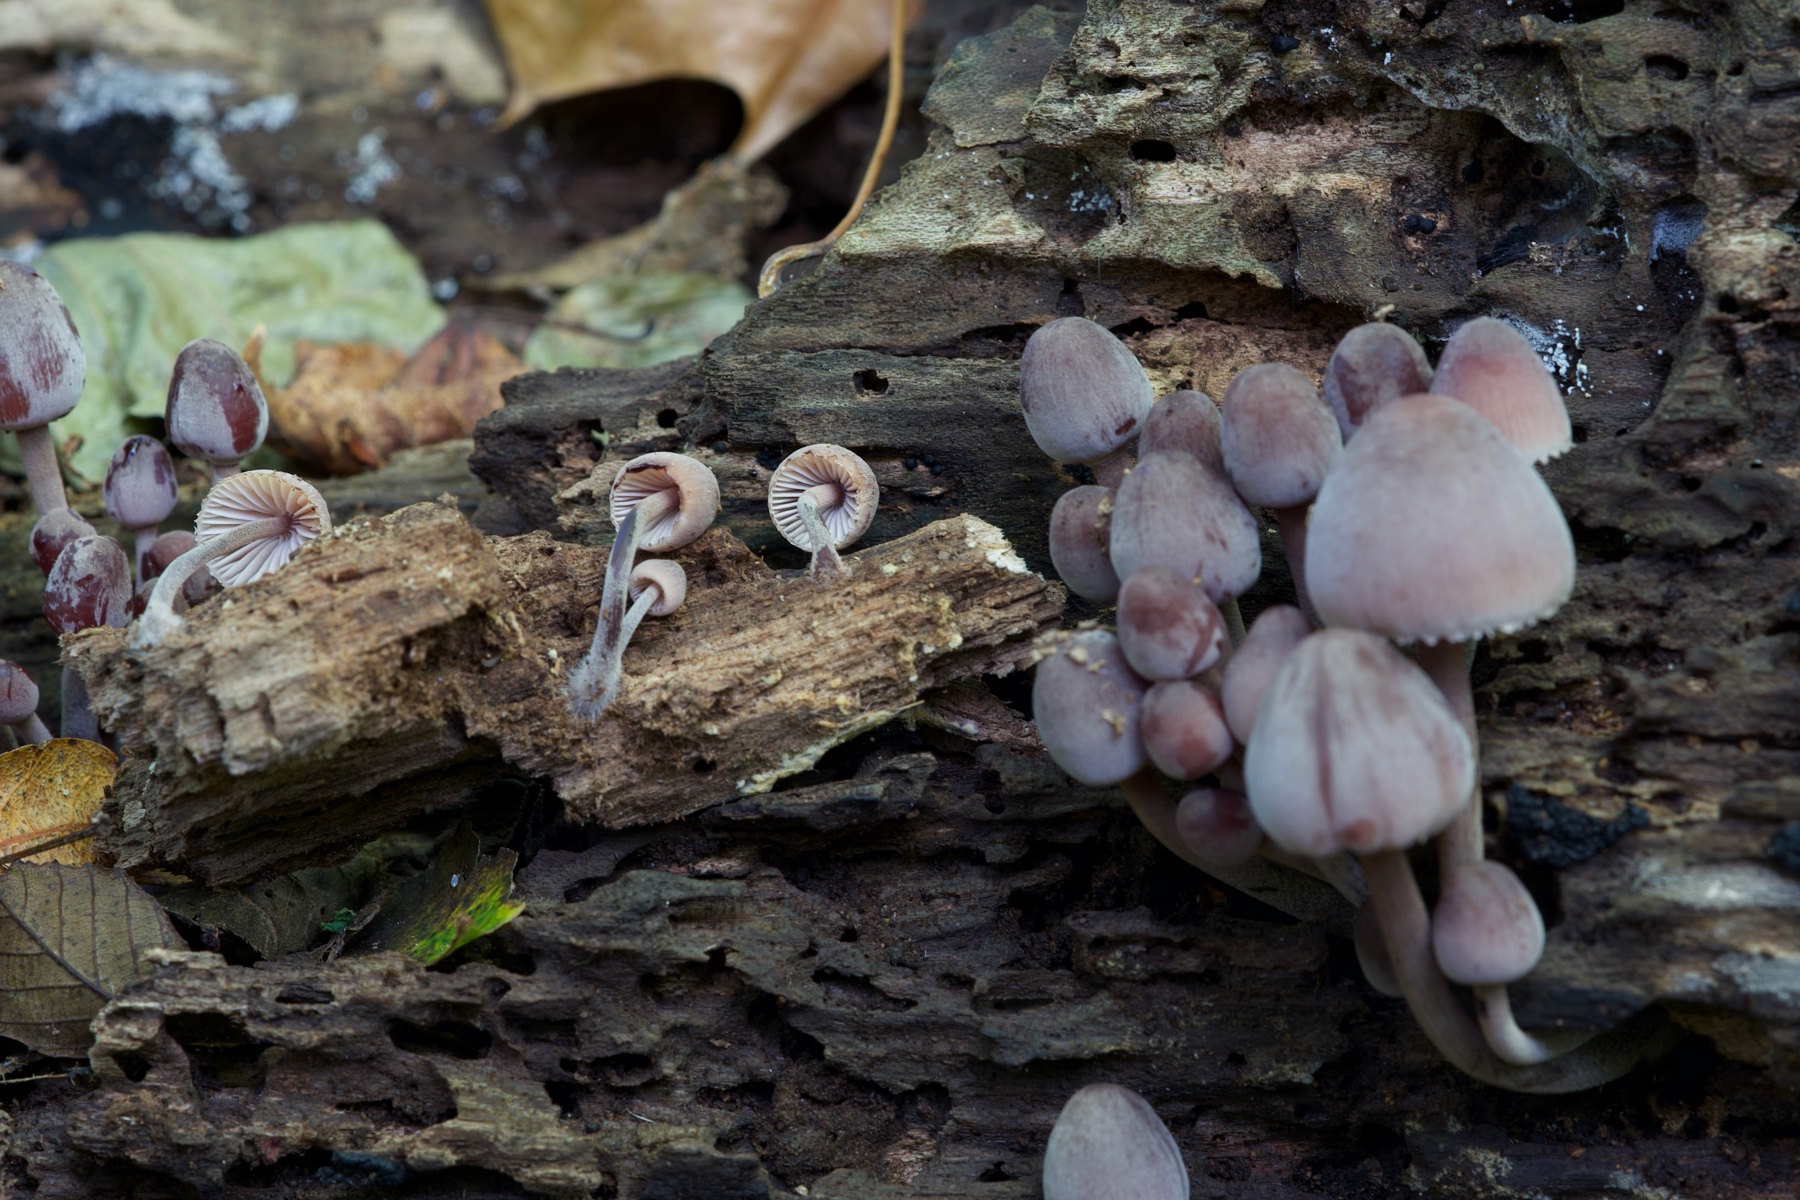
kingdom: Fungi
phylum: Basidiomycota
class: Agaricomycetes
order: Agaricales
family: Mycenaceae
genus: Mycena
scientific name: Mycena haematopus
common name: blødende huesvamp
